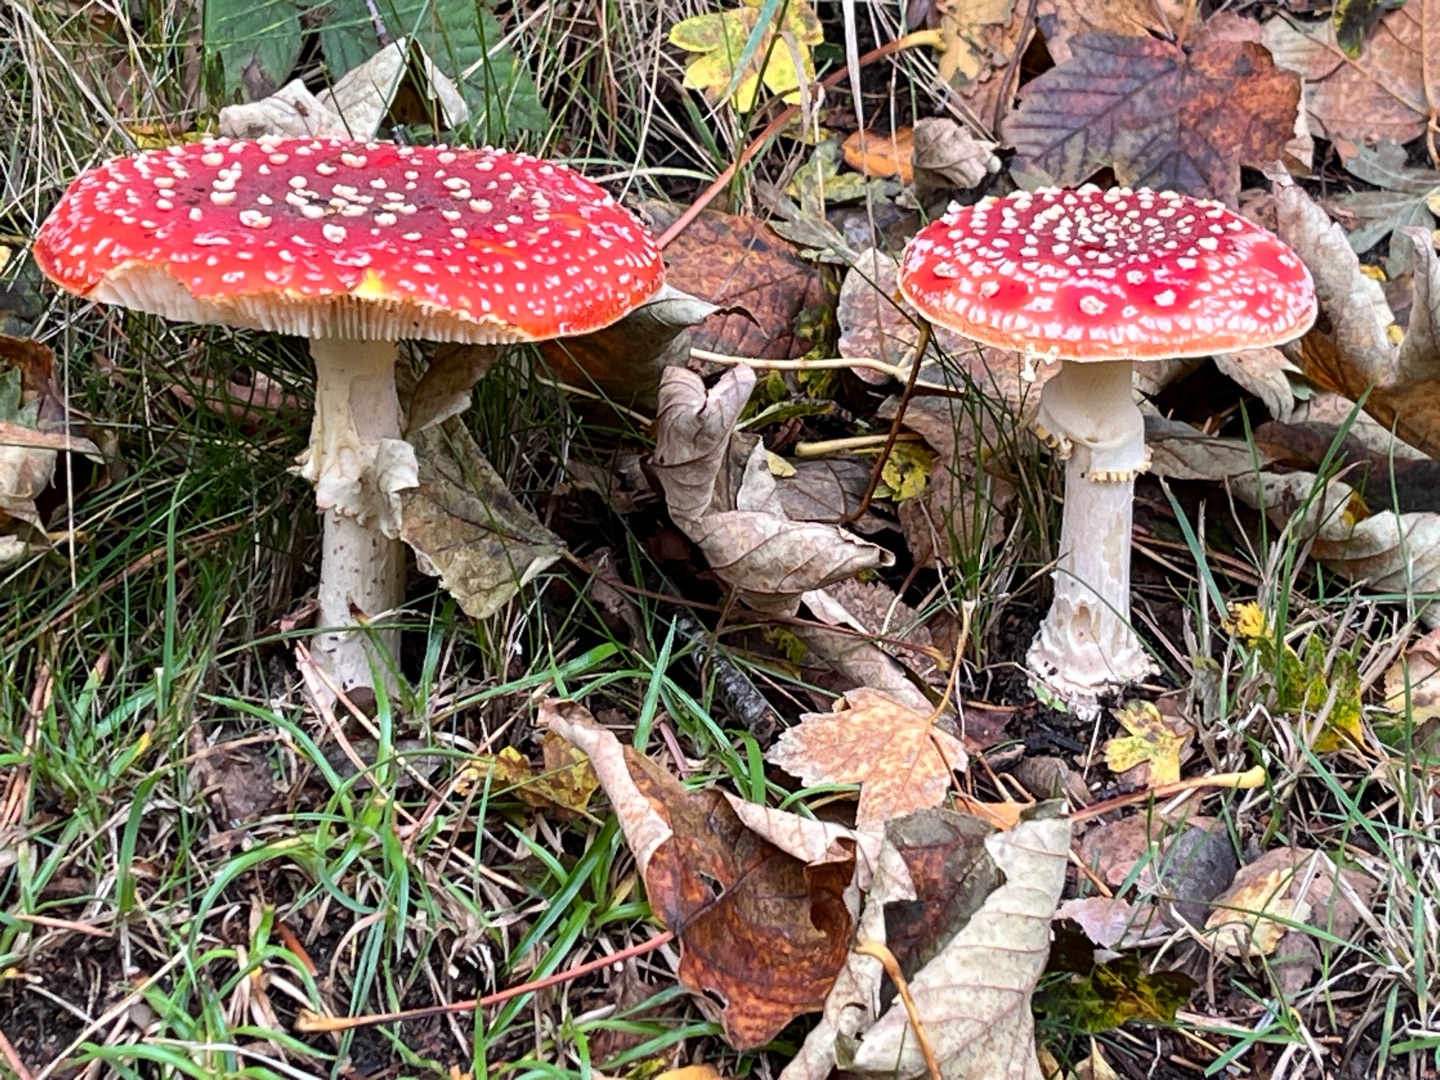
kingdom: Fungi
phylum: Basidiomycota
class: Agaricomycetes
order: Agaricales
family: Amanitaceae
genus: Amanita
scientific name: Amanita muscaria
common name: Rød fluesvamp
